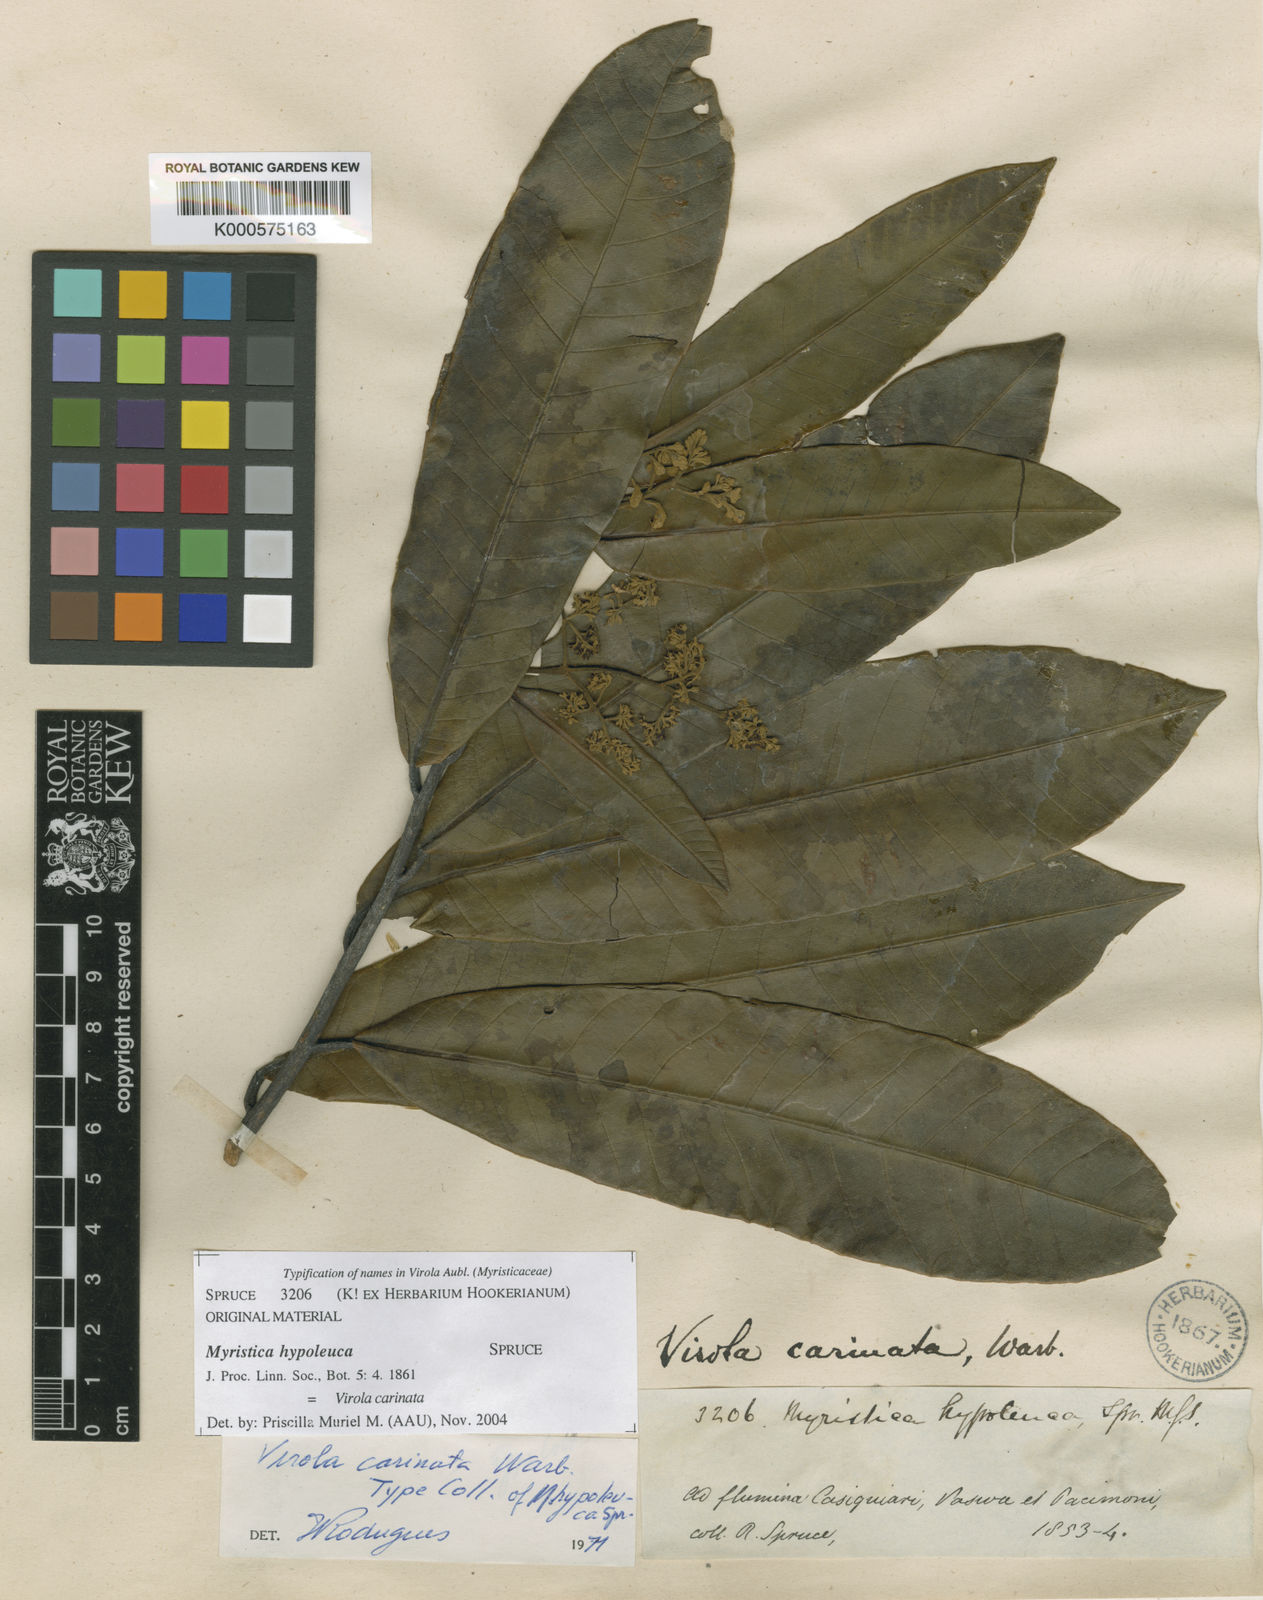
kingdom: Plantae
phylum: Tracheophyta
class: Magnoliopsida
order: Magnoliales
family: Myristicaceae
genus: Virola
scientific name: Virola carinata
